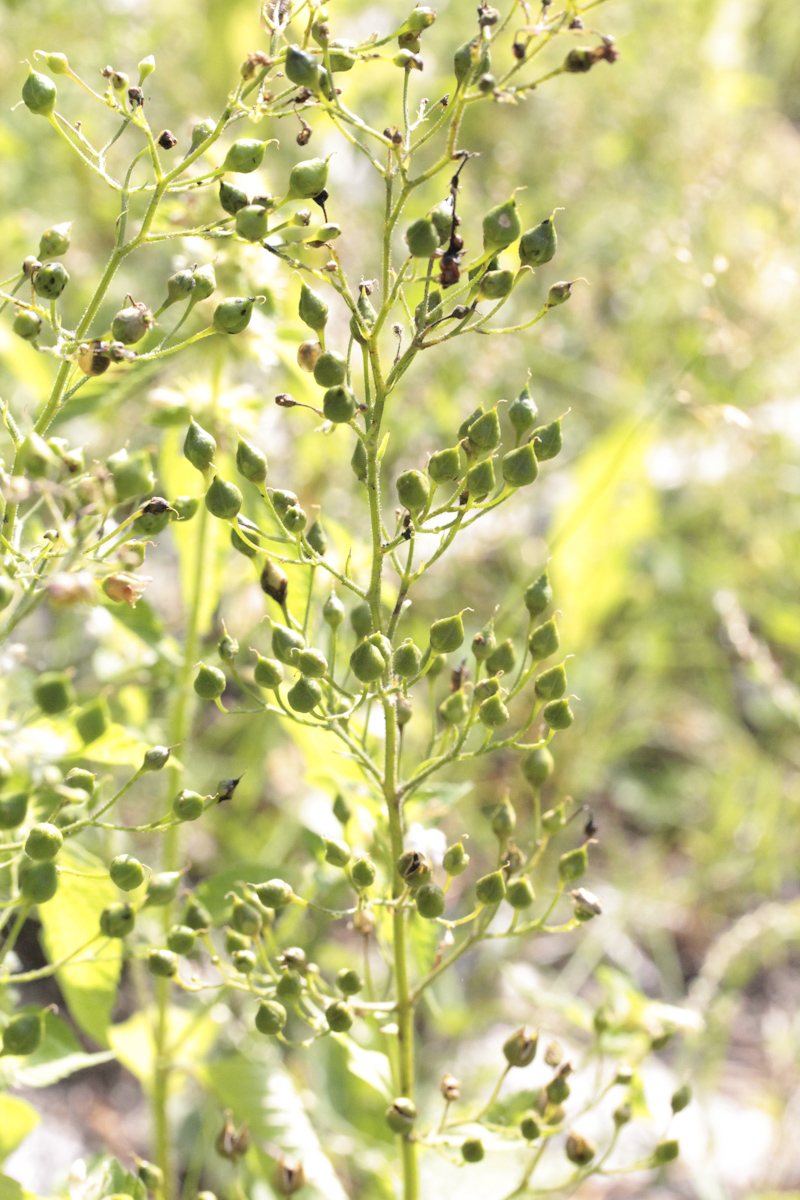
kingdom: Plantae
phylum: Tracheophyta
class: Magnoliopsida
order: Lamiales
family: Scrophulariaceae
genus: Scrophularia
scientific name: Scrophularia nodosa
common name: Common figwort
